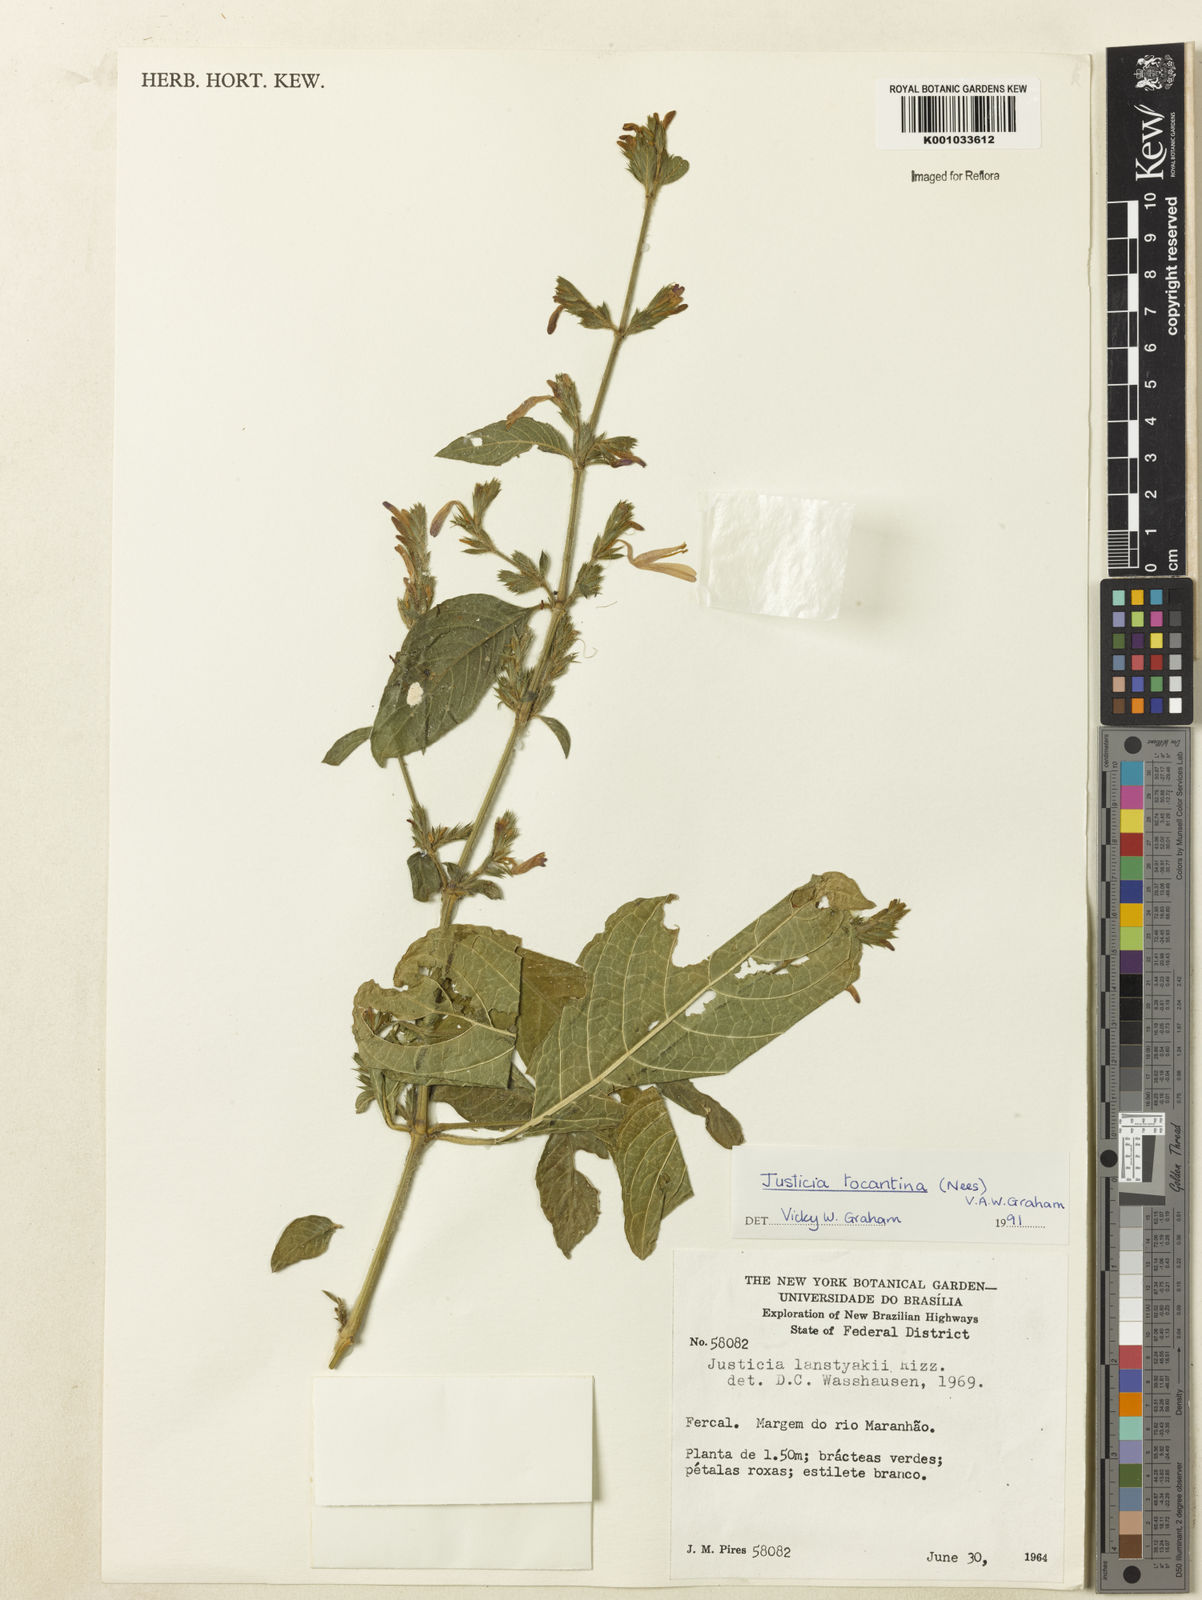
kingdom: Plantae
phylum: Tracheophyta
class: Magnoliopsida
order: Lamiales
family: Acanthaceae
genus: Justicia
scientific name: Justicia tocantina
